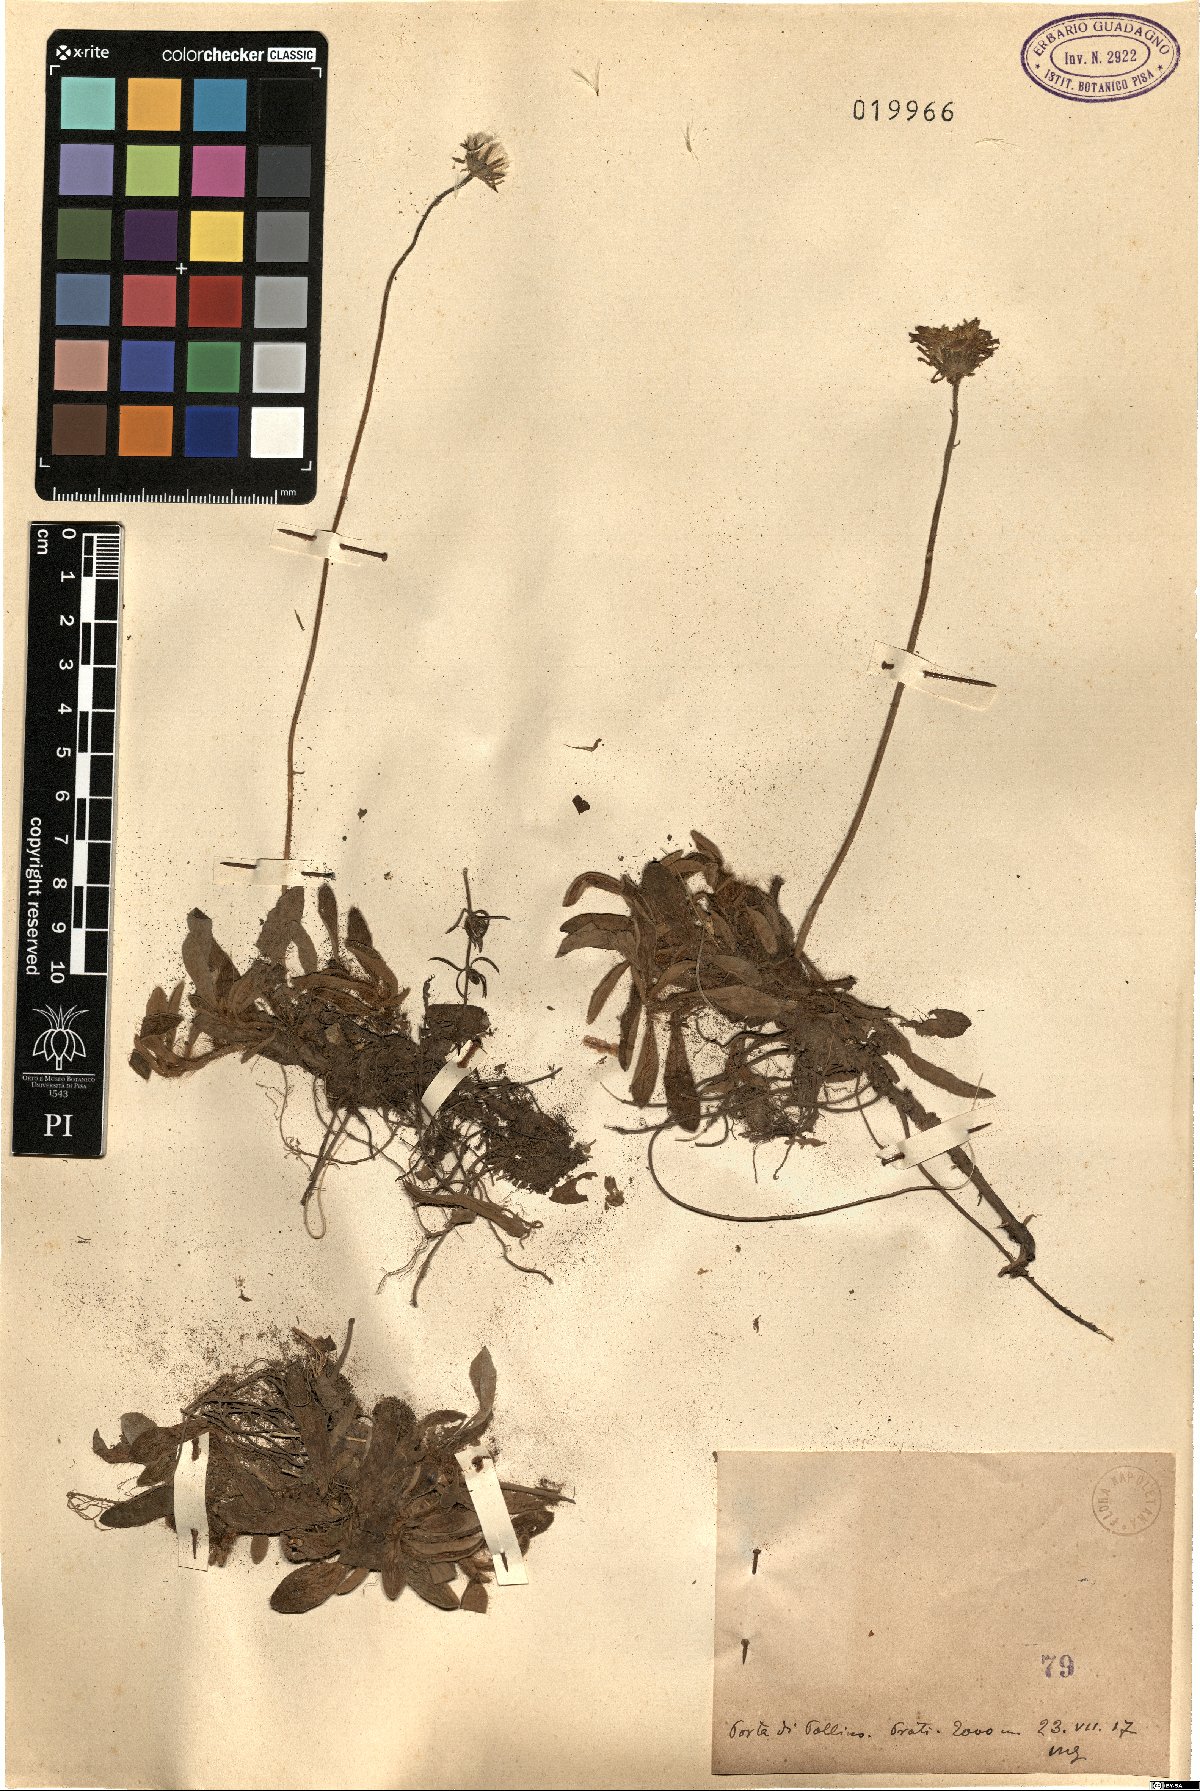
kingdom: Plantae
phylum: Tracheophyta
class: Magnoliopsida
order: Asterales
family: Asteraceae
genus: Hieracium
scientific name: Hieracium
